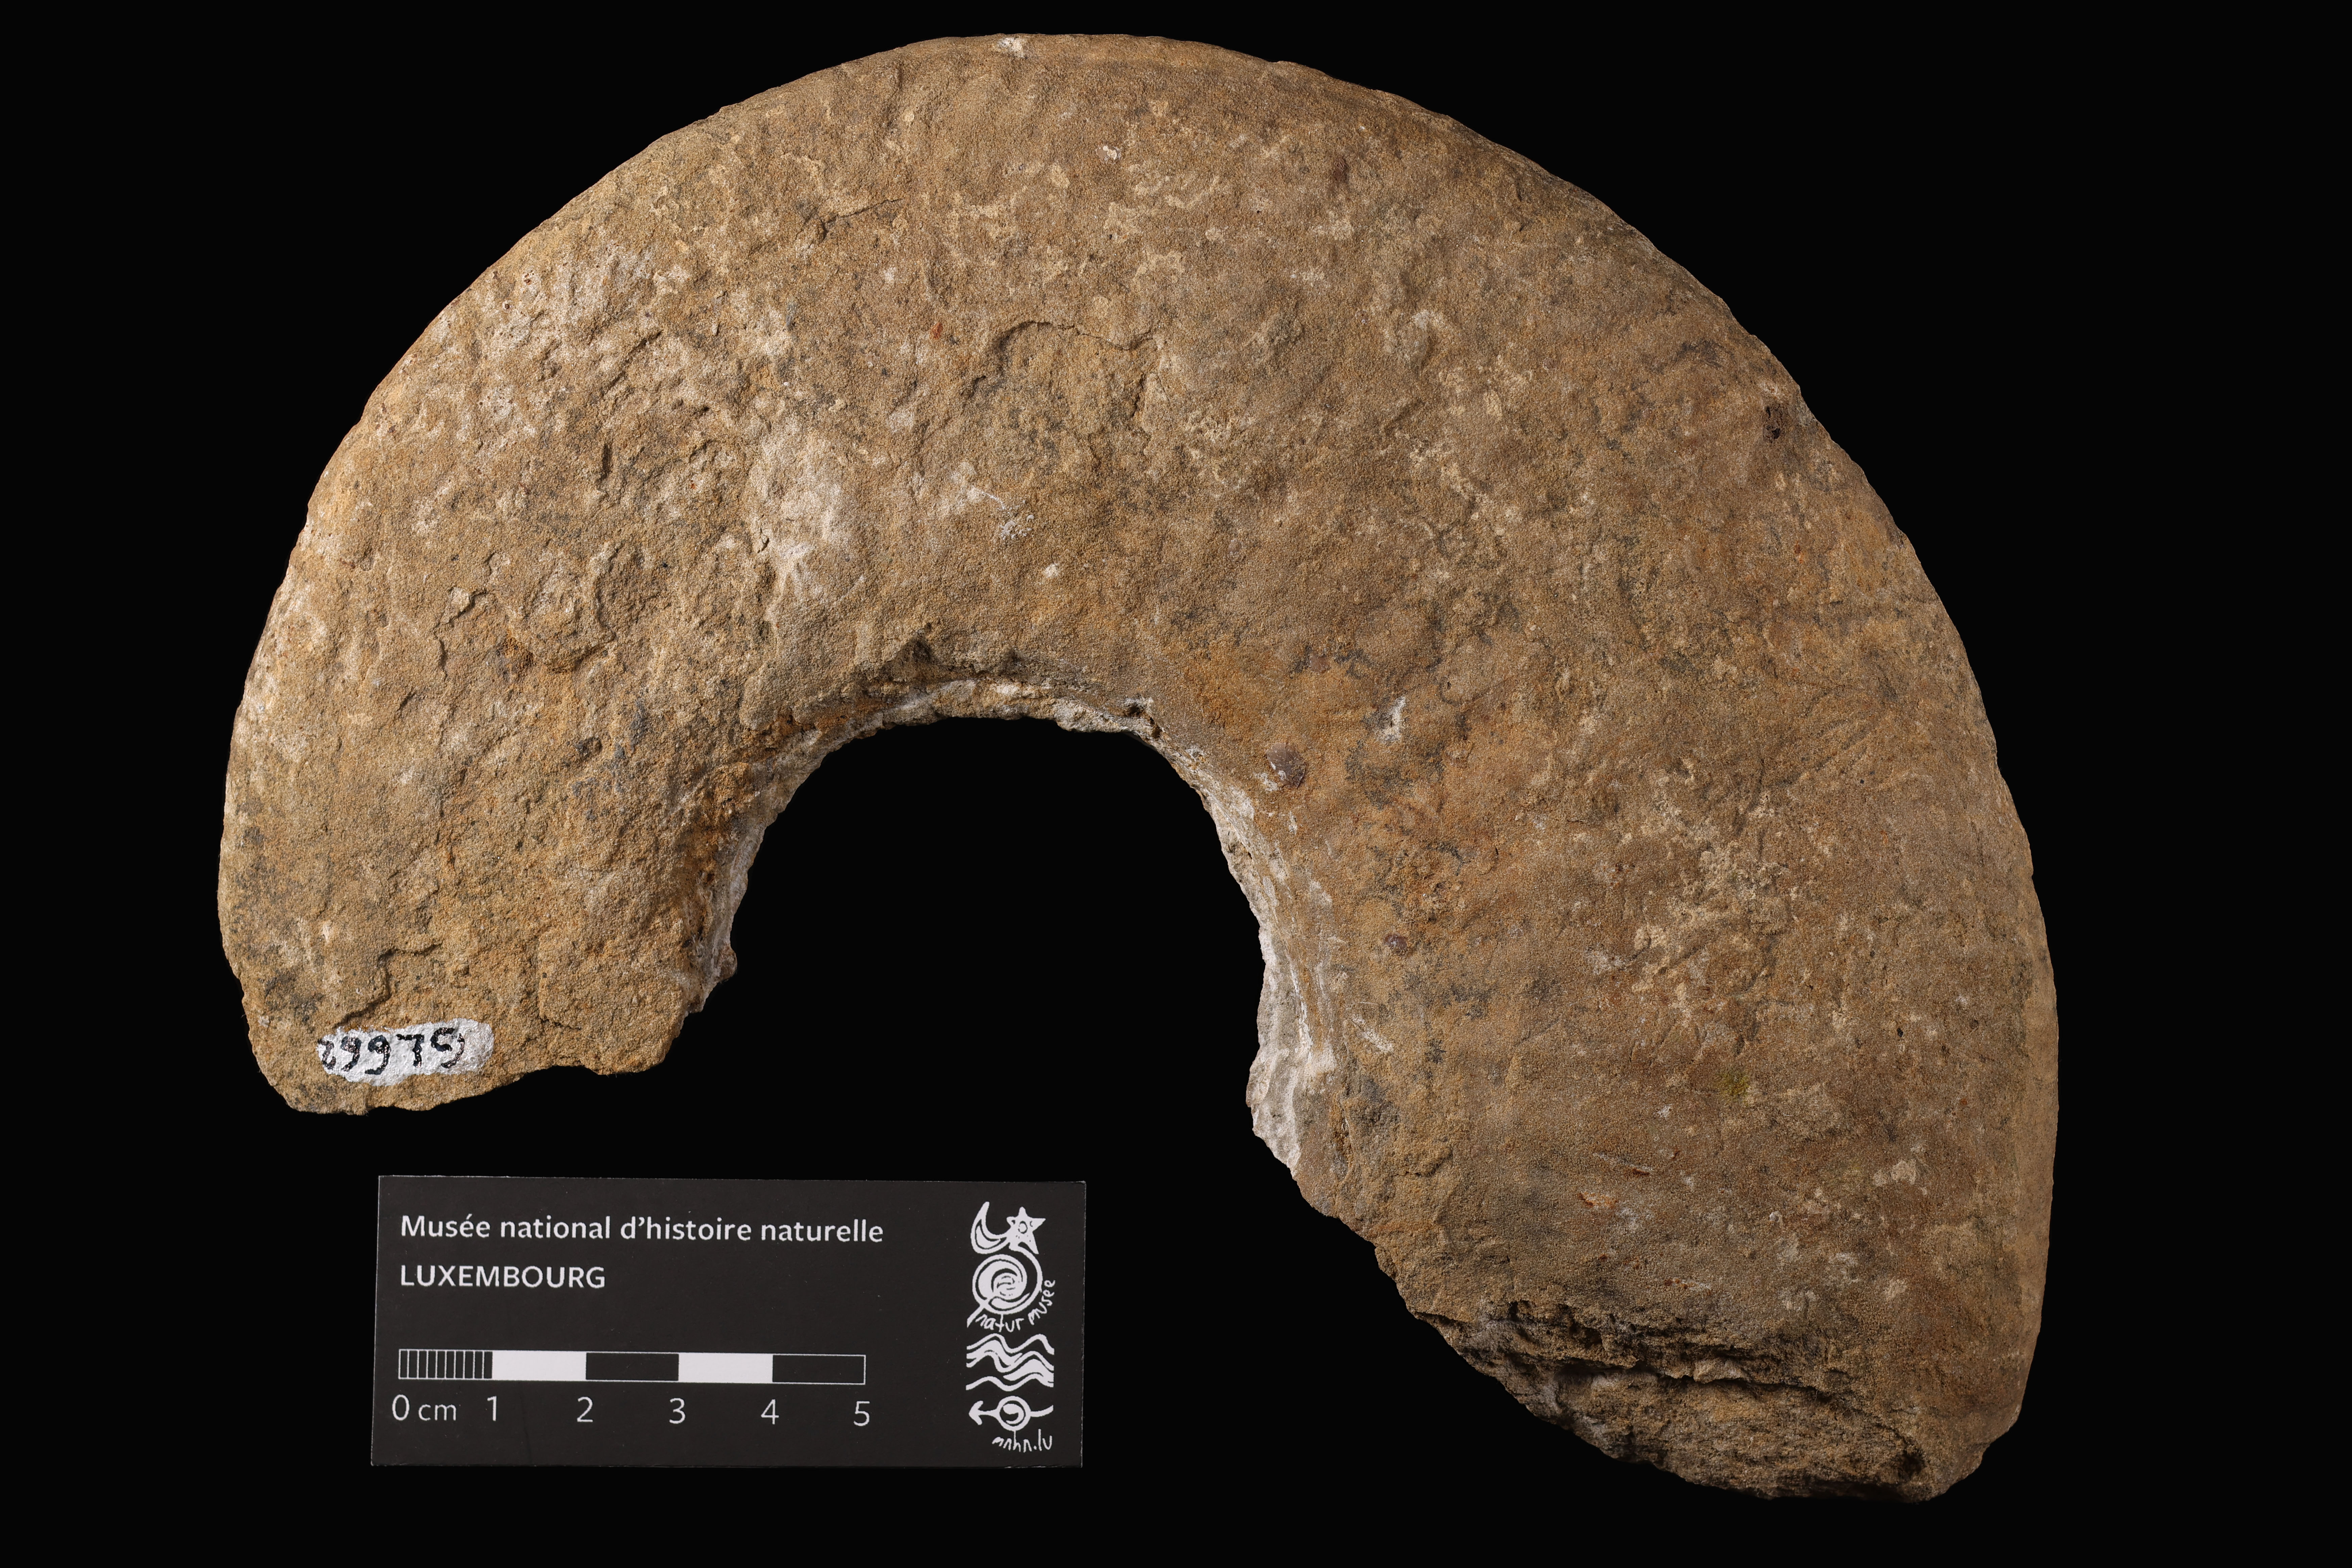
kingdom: Animalia
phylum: Mollusca
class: Cephalopoda
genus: Sulciferites
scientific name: Sulciferites
